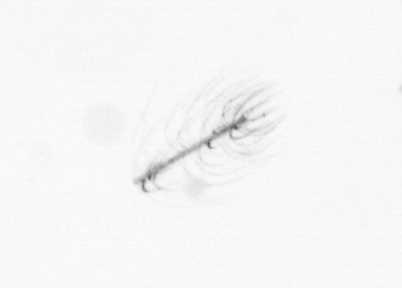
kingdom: Chromista
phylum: Ochrophyta
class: Bacillariophyceae
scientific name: Bacillariophyceae
